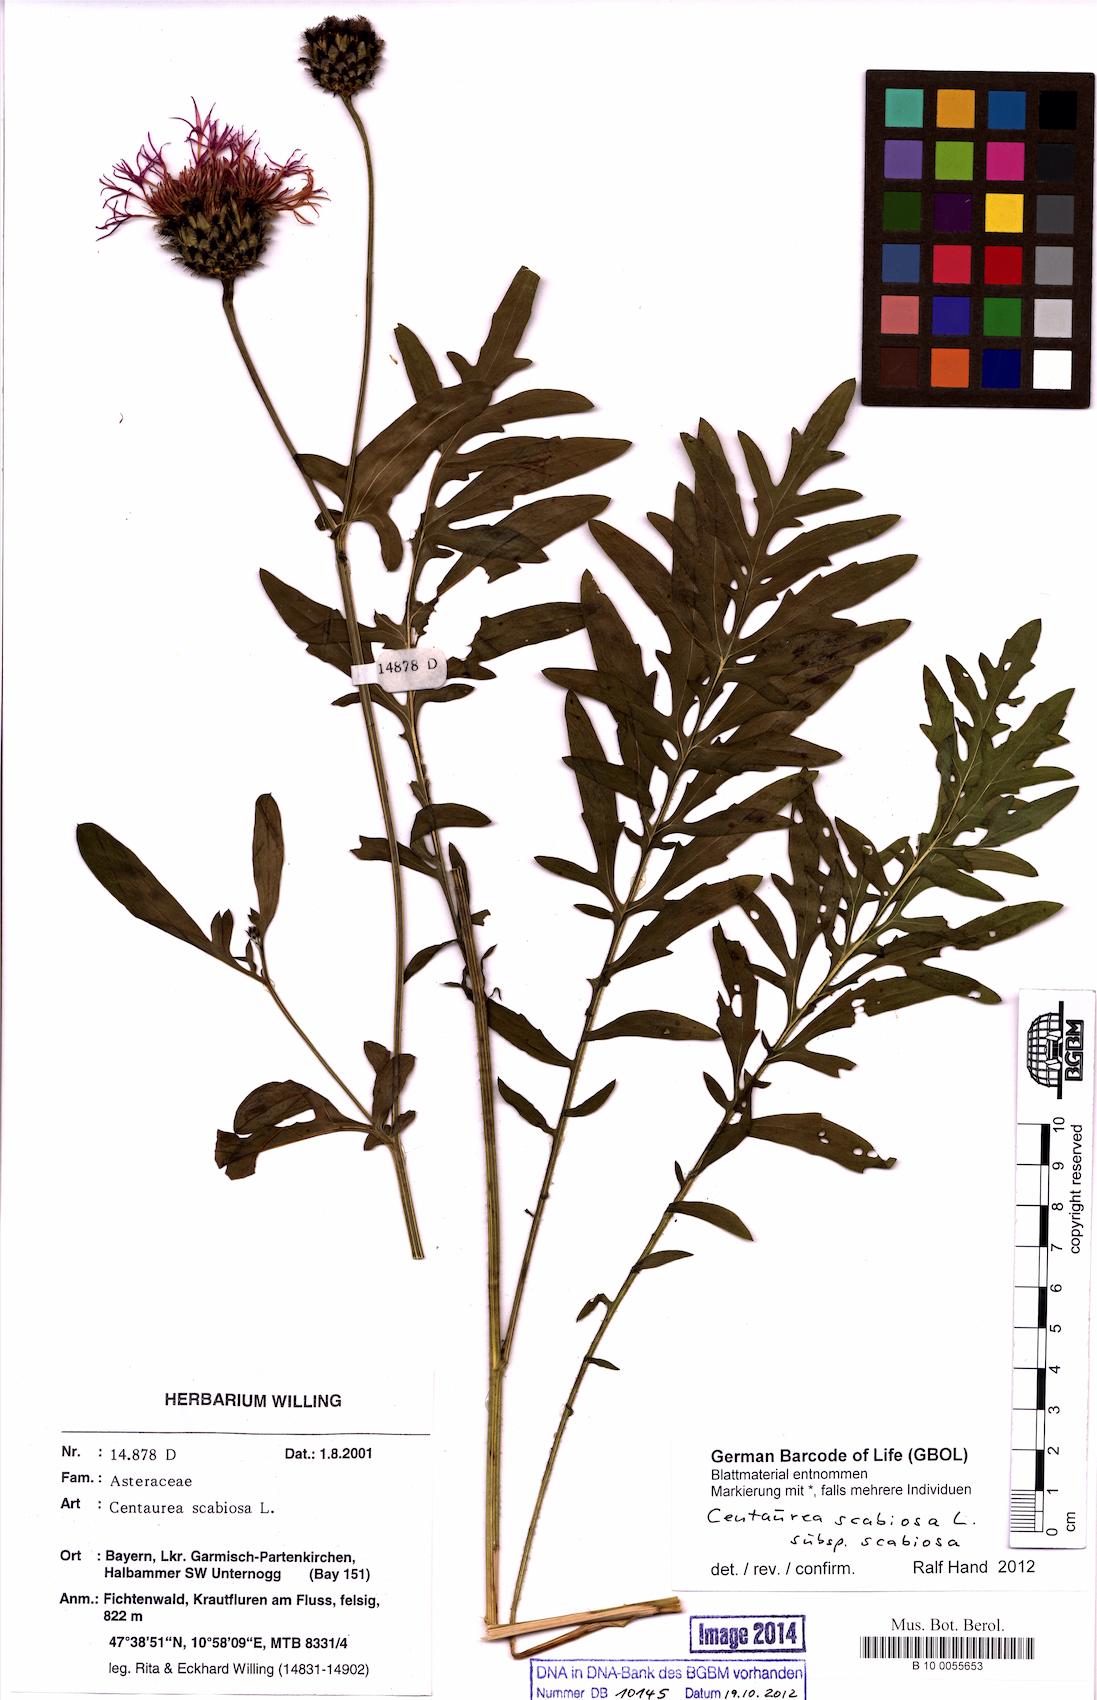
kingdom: Plantae
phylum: Tracheophyta
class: Magnoliopsida
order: Asterales
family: Asteraceae
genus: Centaurea
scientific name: Centaurea scabiosa
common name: Greater knapweed
